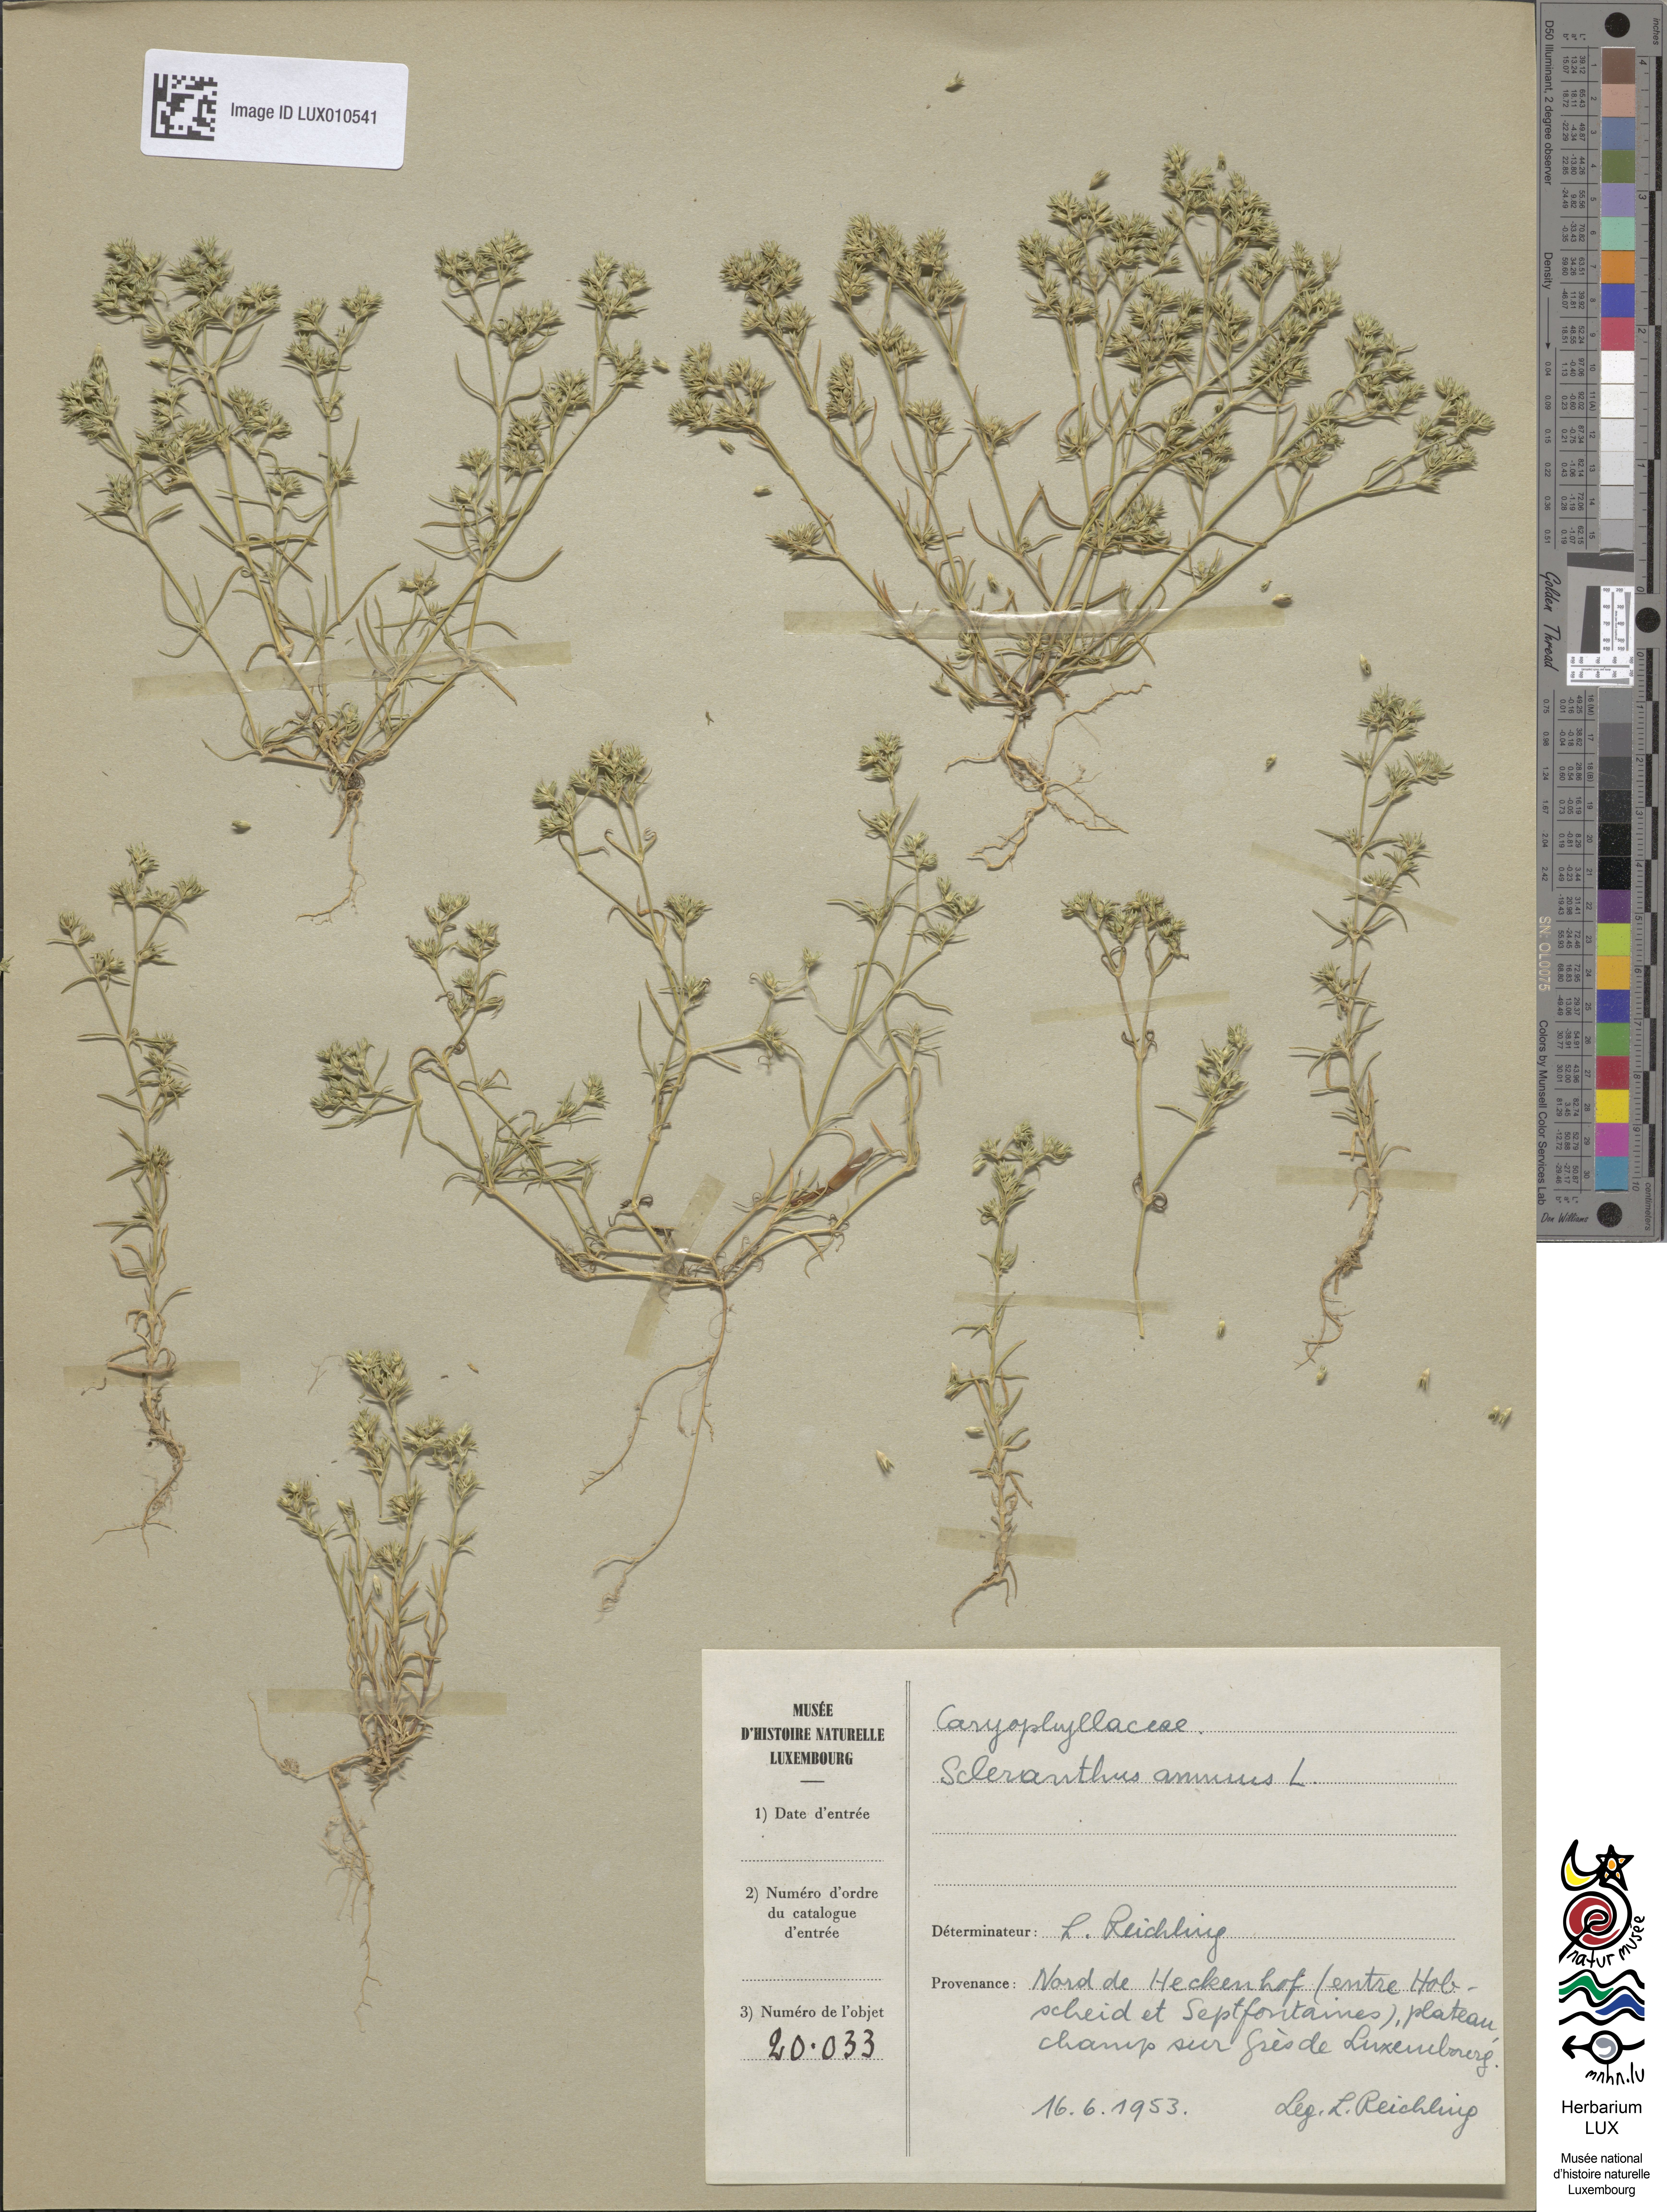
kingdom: Plantae
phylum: Tracheophyta
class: Magnoliopsida
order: Caryophyllales
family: Caryophyllaceae
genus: Scleranthus
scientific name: Scleranthus annuus
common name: Annual knawel
